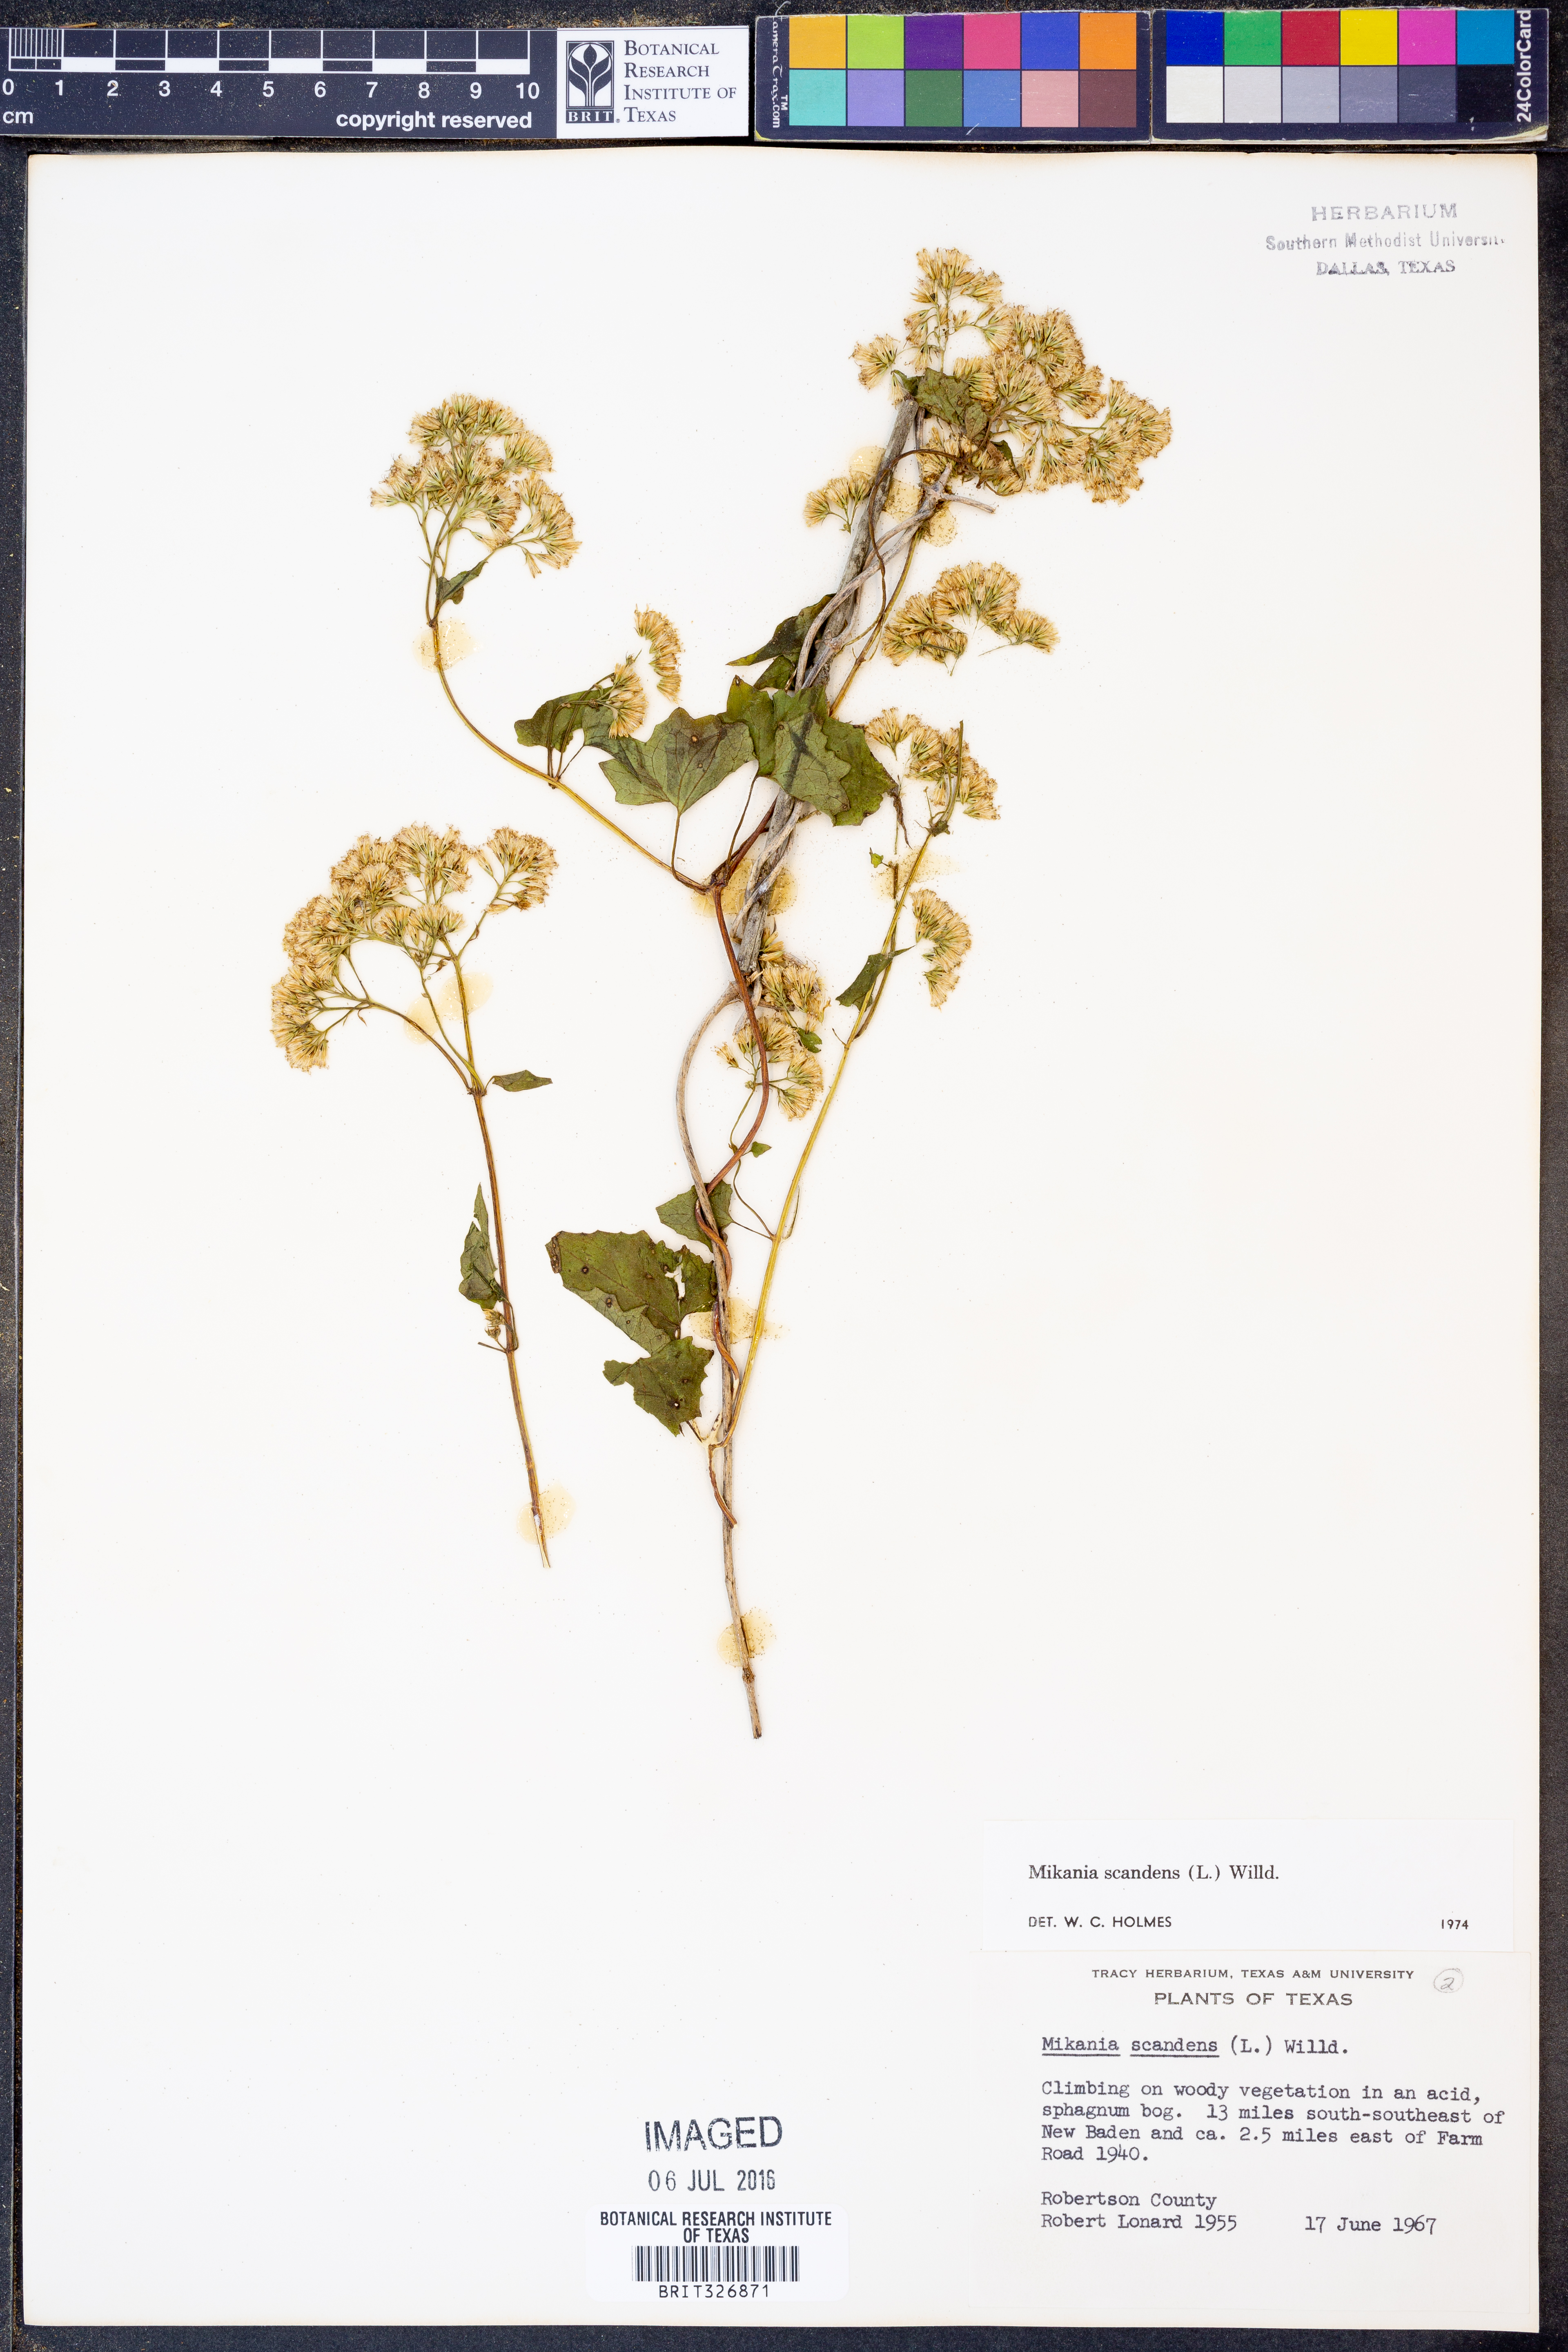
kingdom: Plantae
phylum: Tracheophyta
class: Magnoliopsida
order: Asterales
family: Asteraceae
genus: Mikania
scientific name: Mikania scandens
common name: Climbing hempvine
